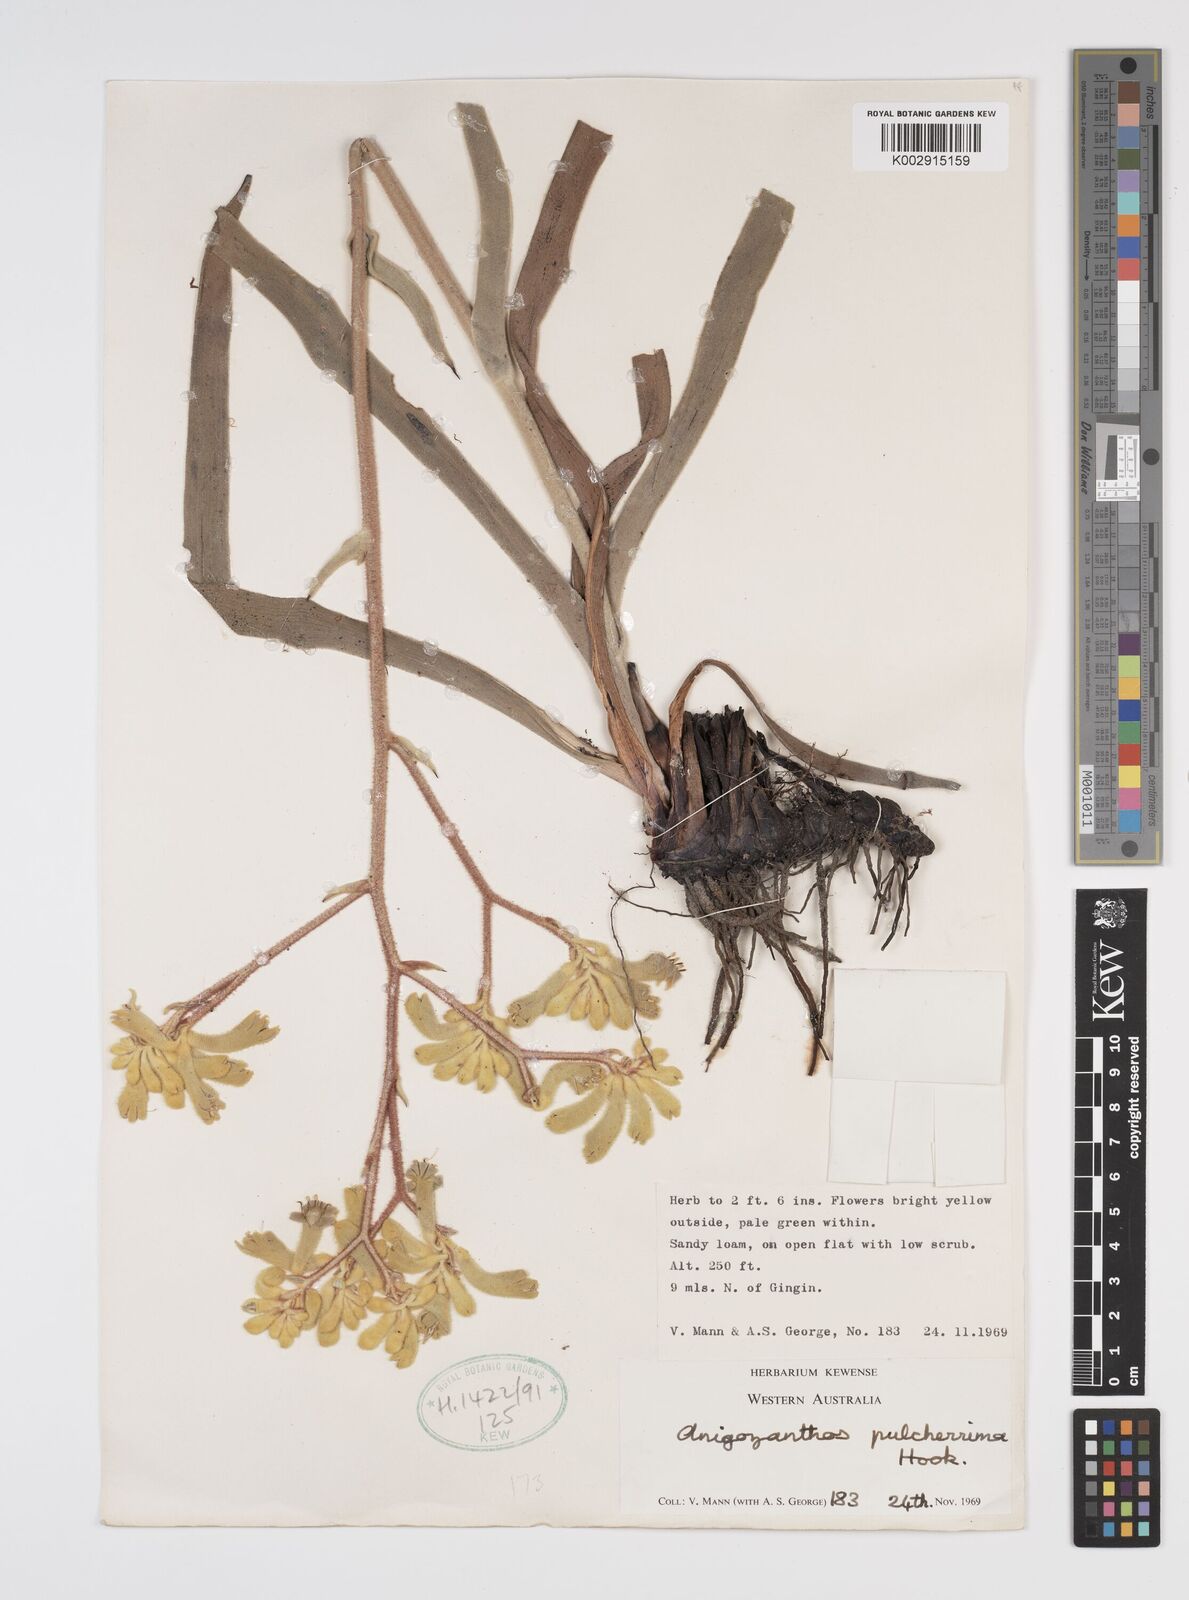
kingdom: Plantae
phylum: Tracheophyta
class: Liliopsida
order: Commelinales
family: Haemodoraceae
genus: Anigozanthos
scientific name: Anigozanthos pulcherrimus
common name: Yellow kangaroo-paw
